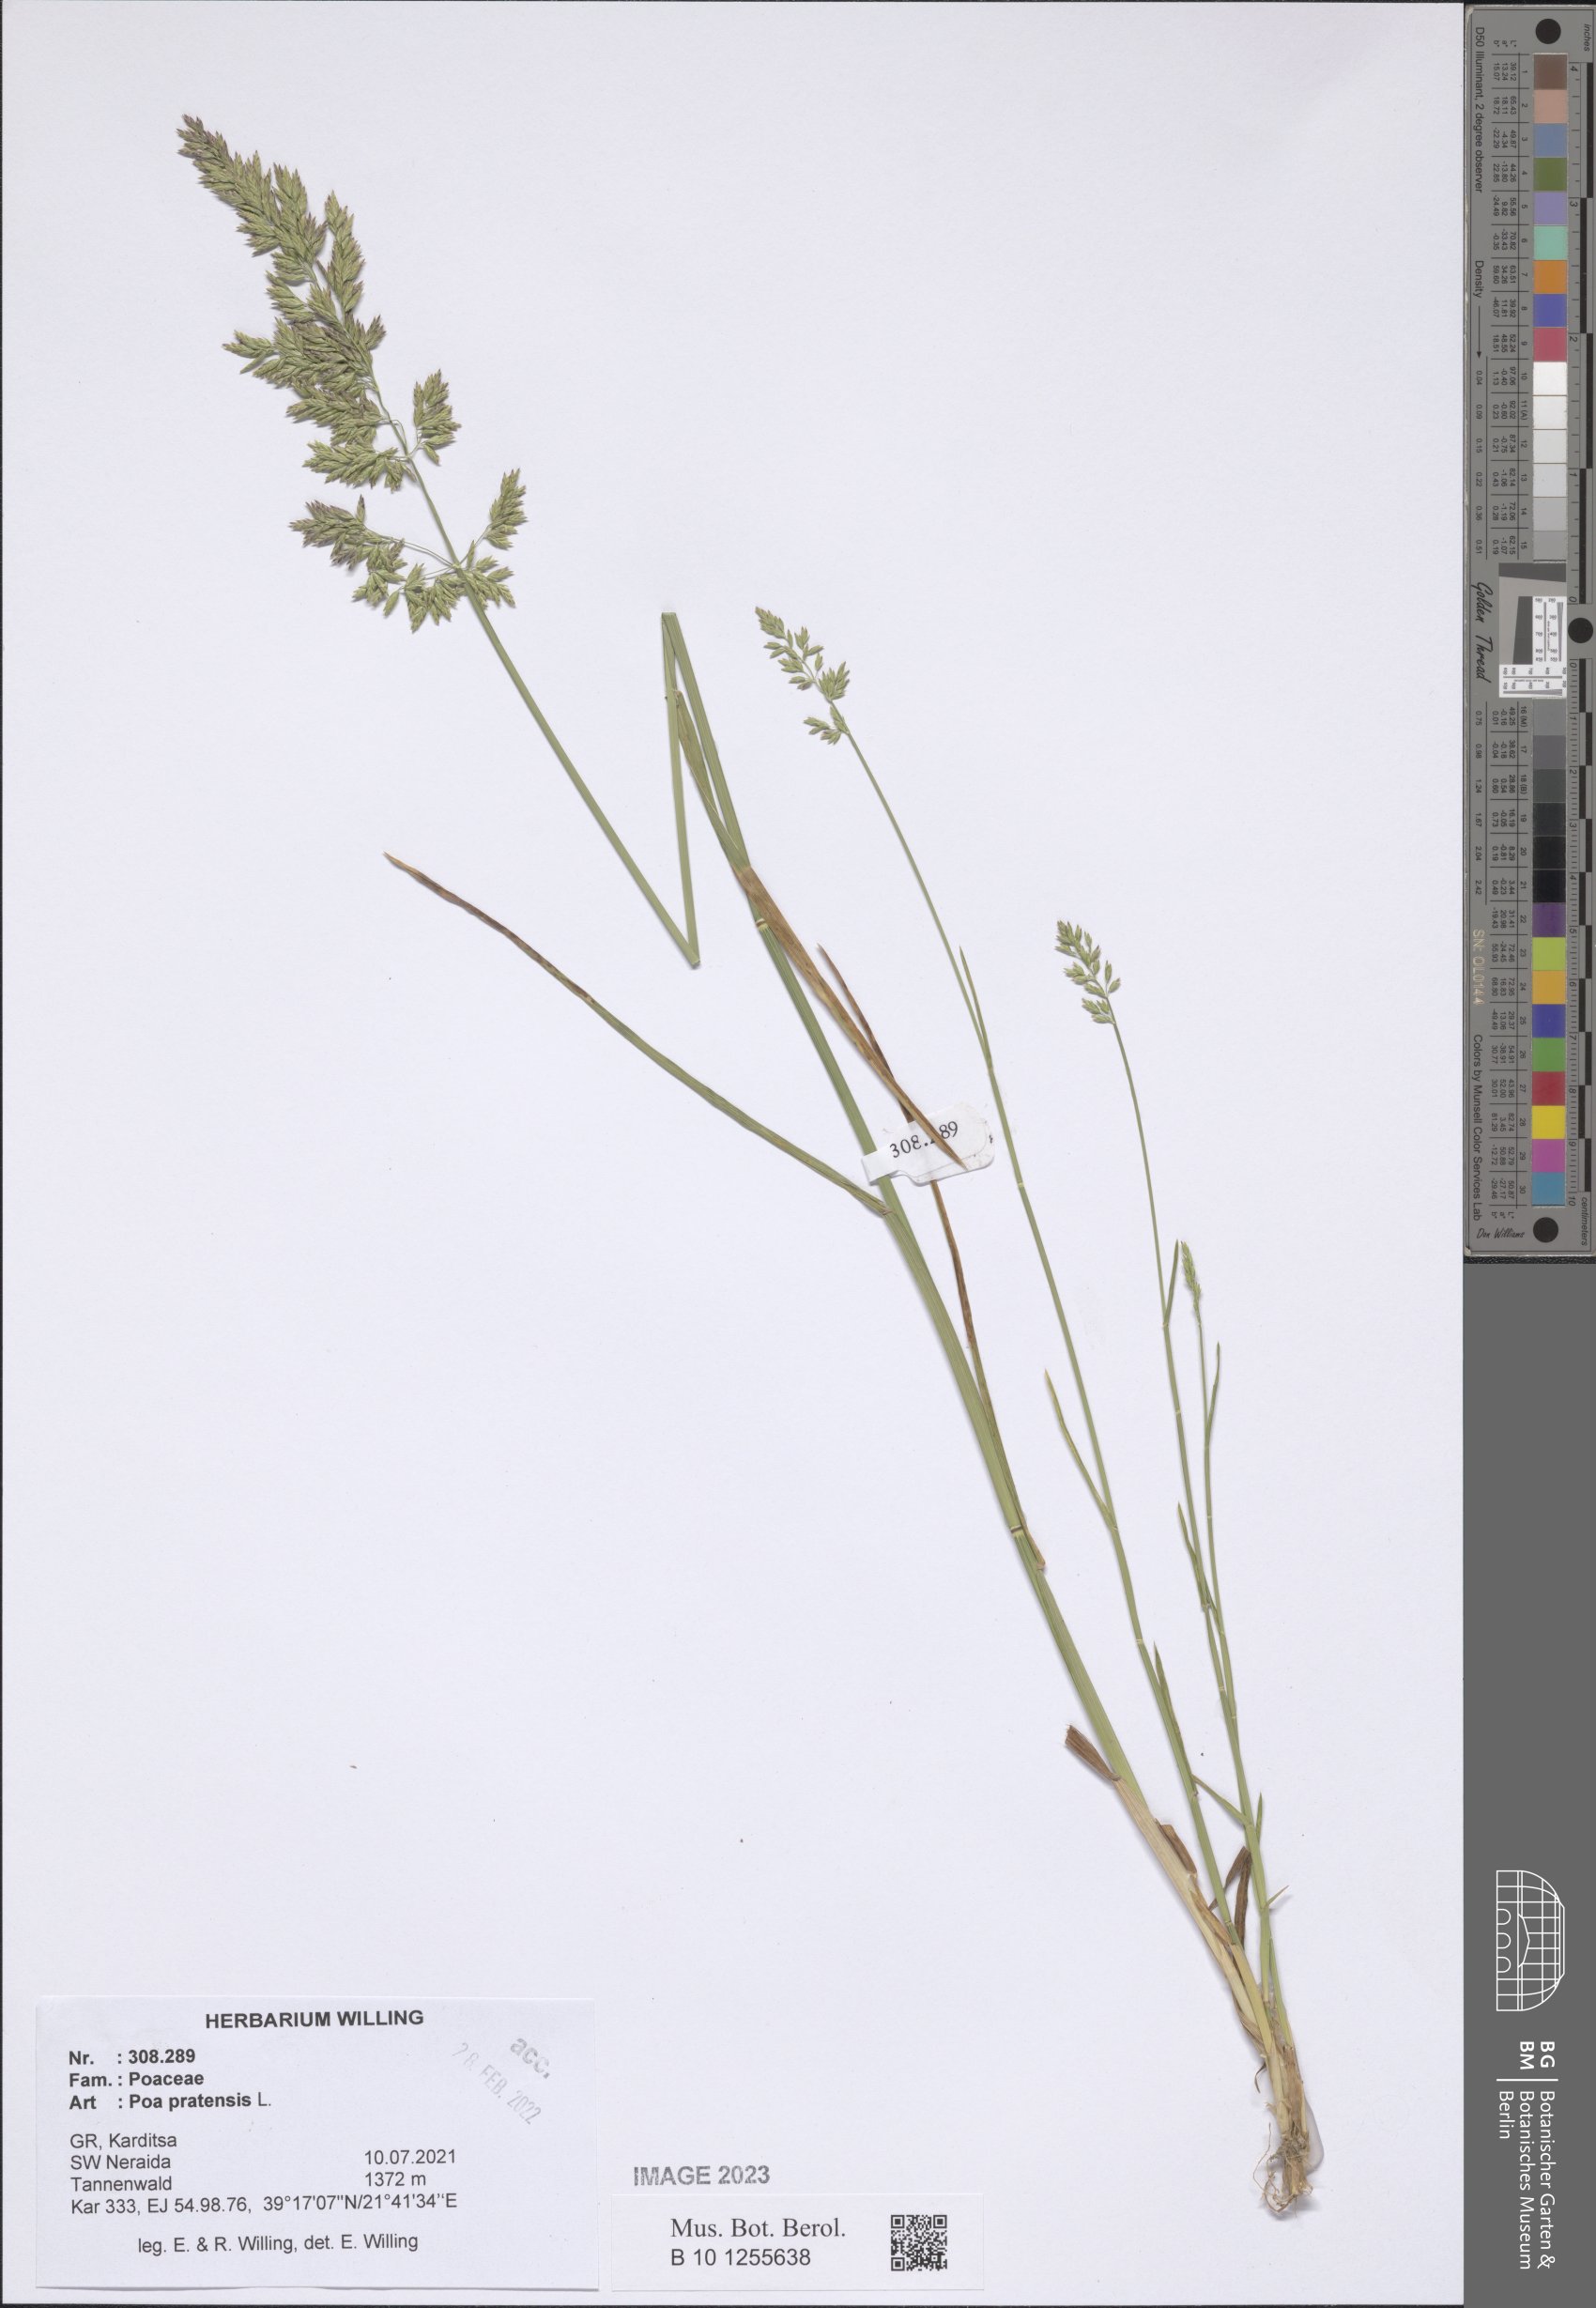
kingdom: Plantae
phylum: Tracheophyta
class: Liliopsida
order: Poales
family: Poaceae
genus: Poa
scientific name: Poa pratensis
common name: Kentucky bluegrass
